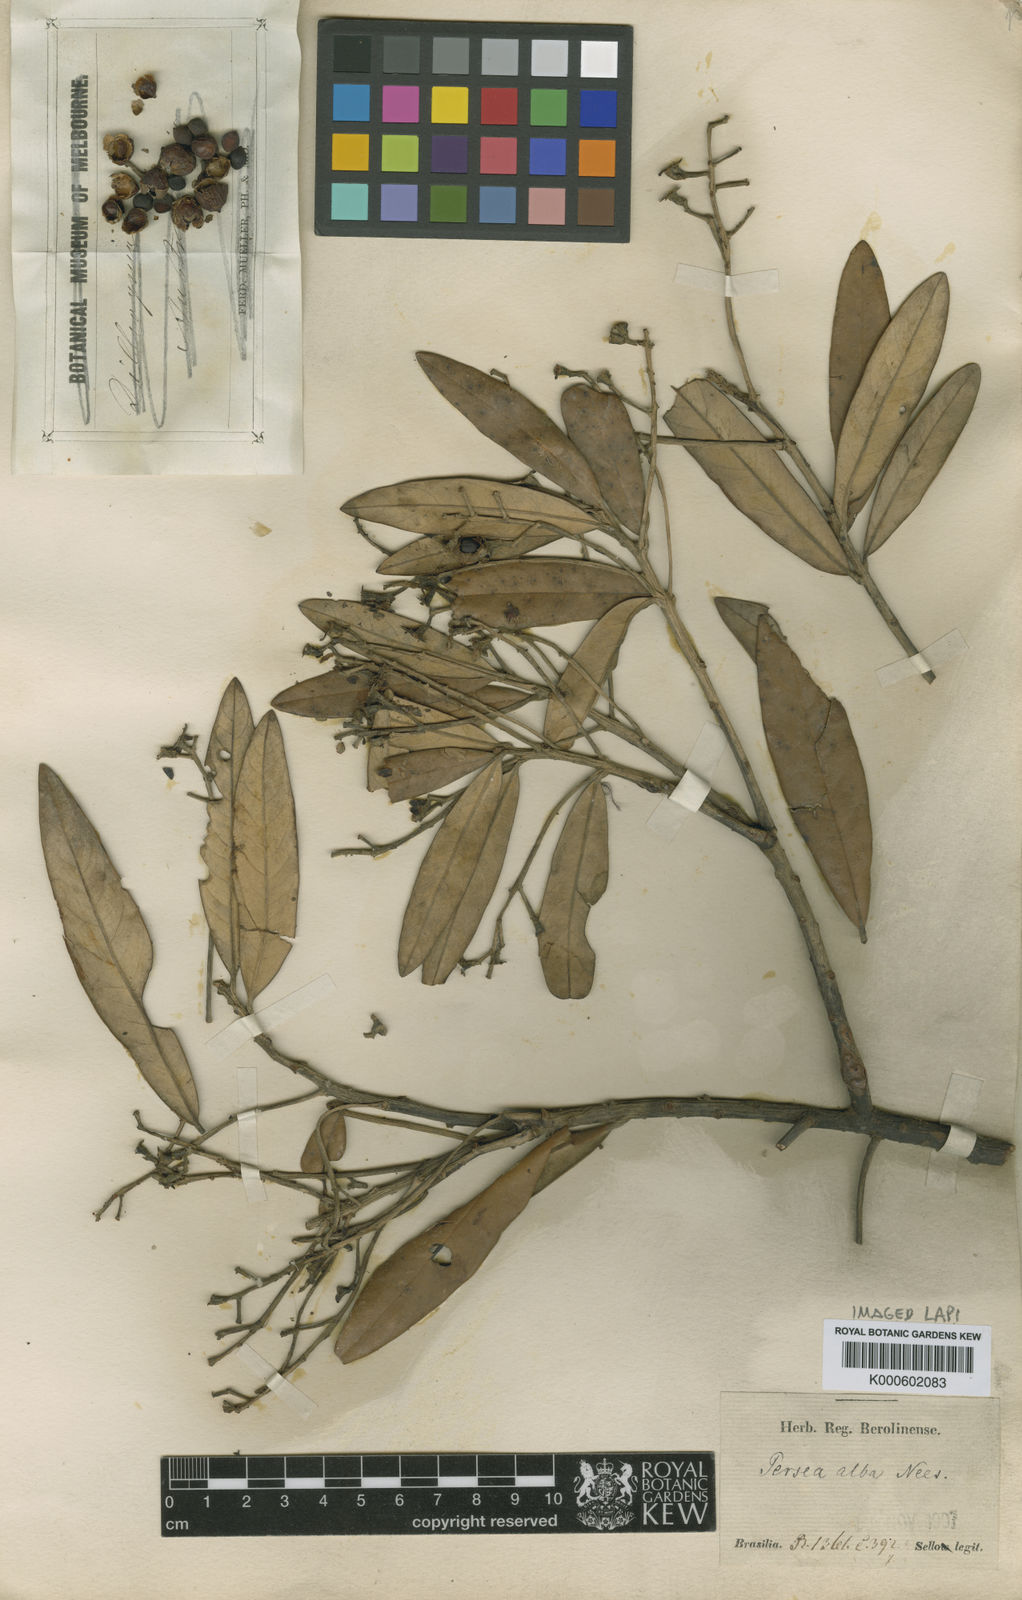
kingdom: Plantae
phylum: Tracheophyta
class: Magnoliopsida
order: Laurales
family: Lauraceae
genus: Persea
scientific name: Persea alba
